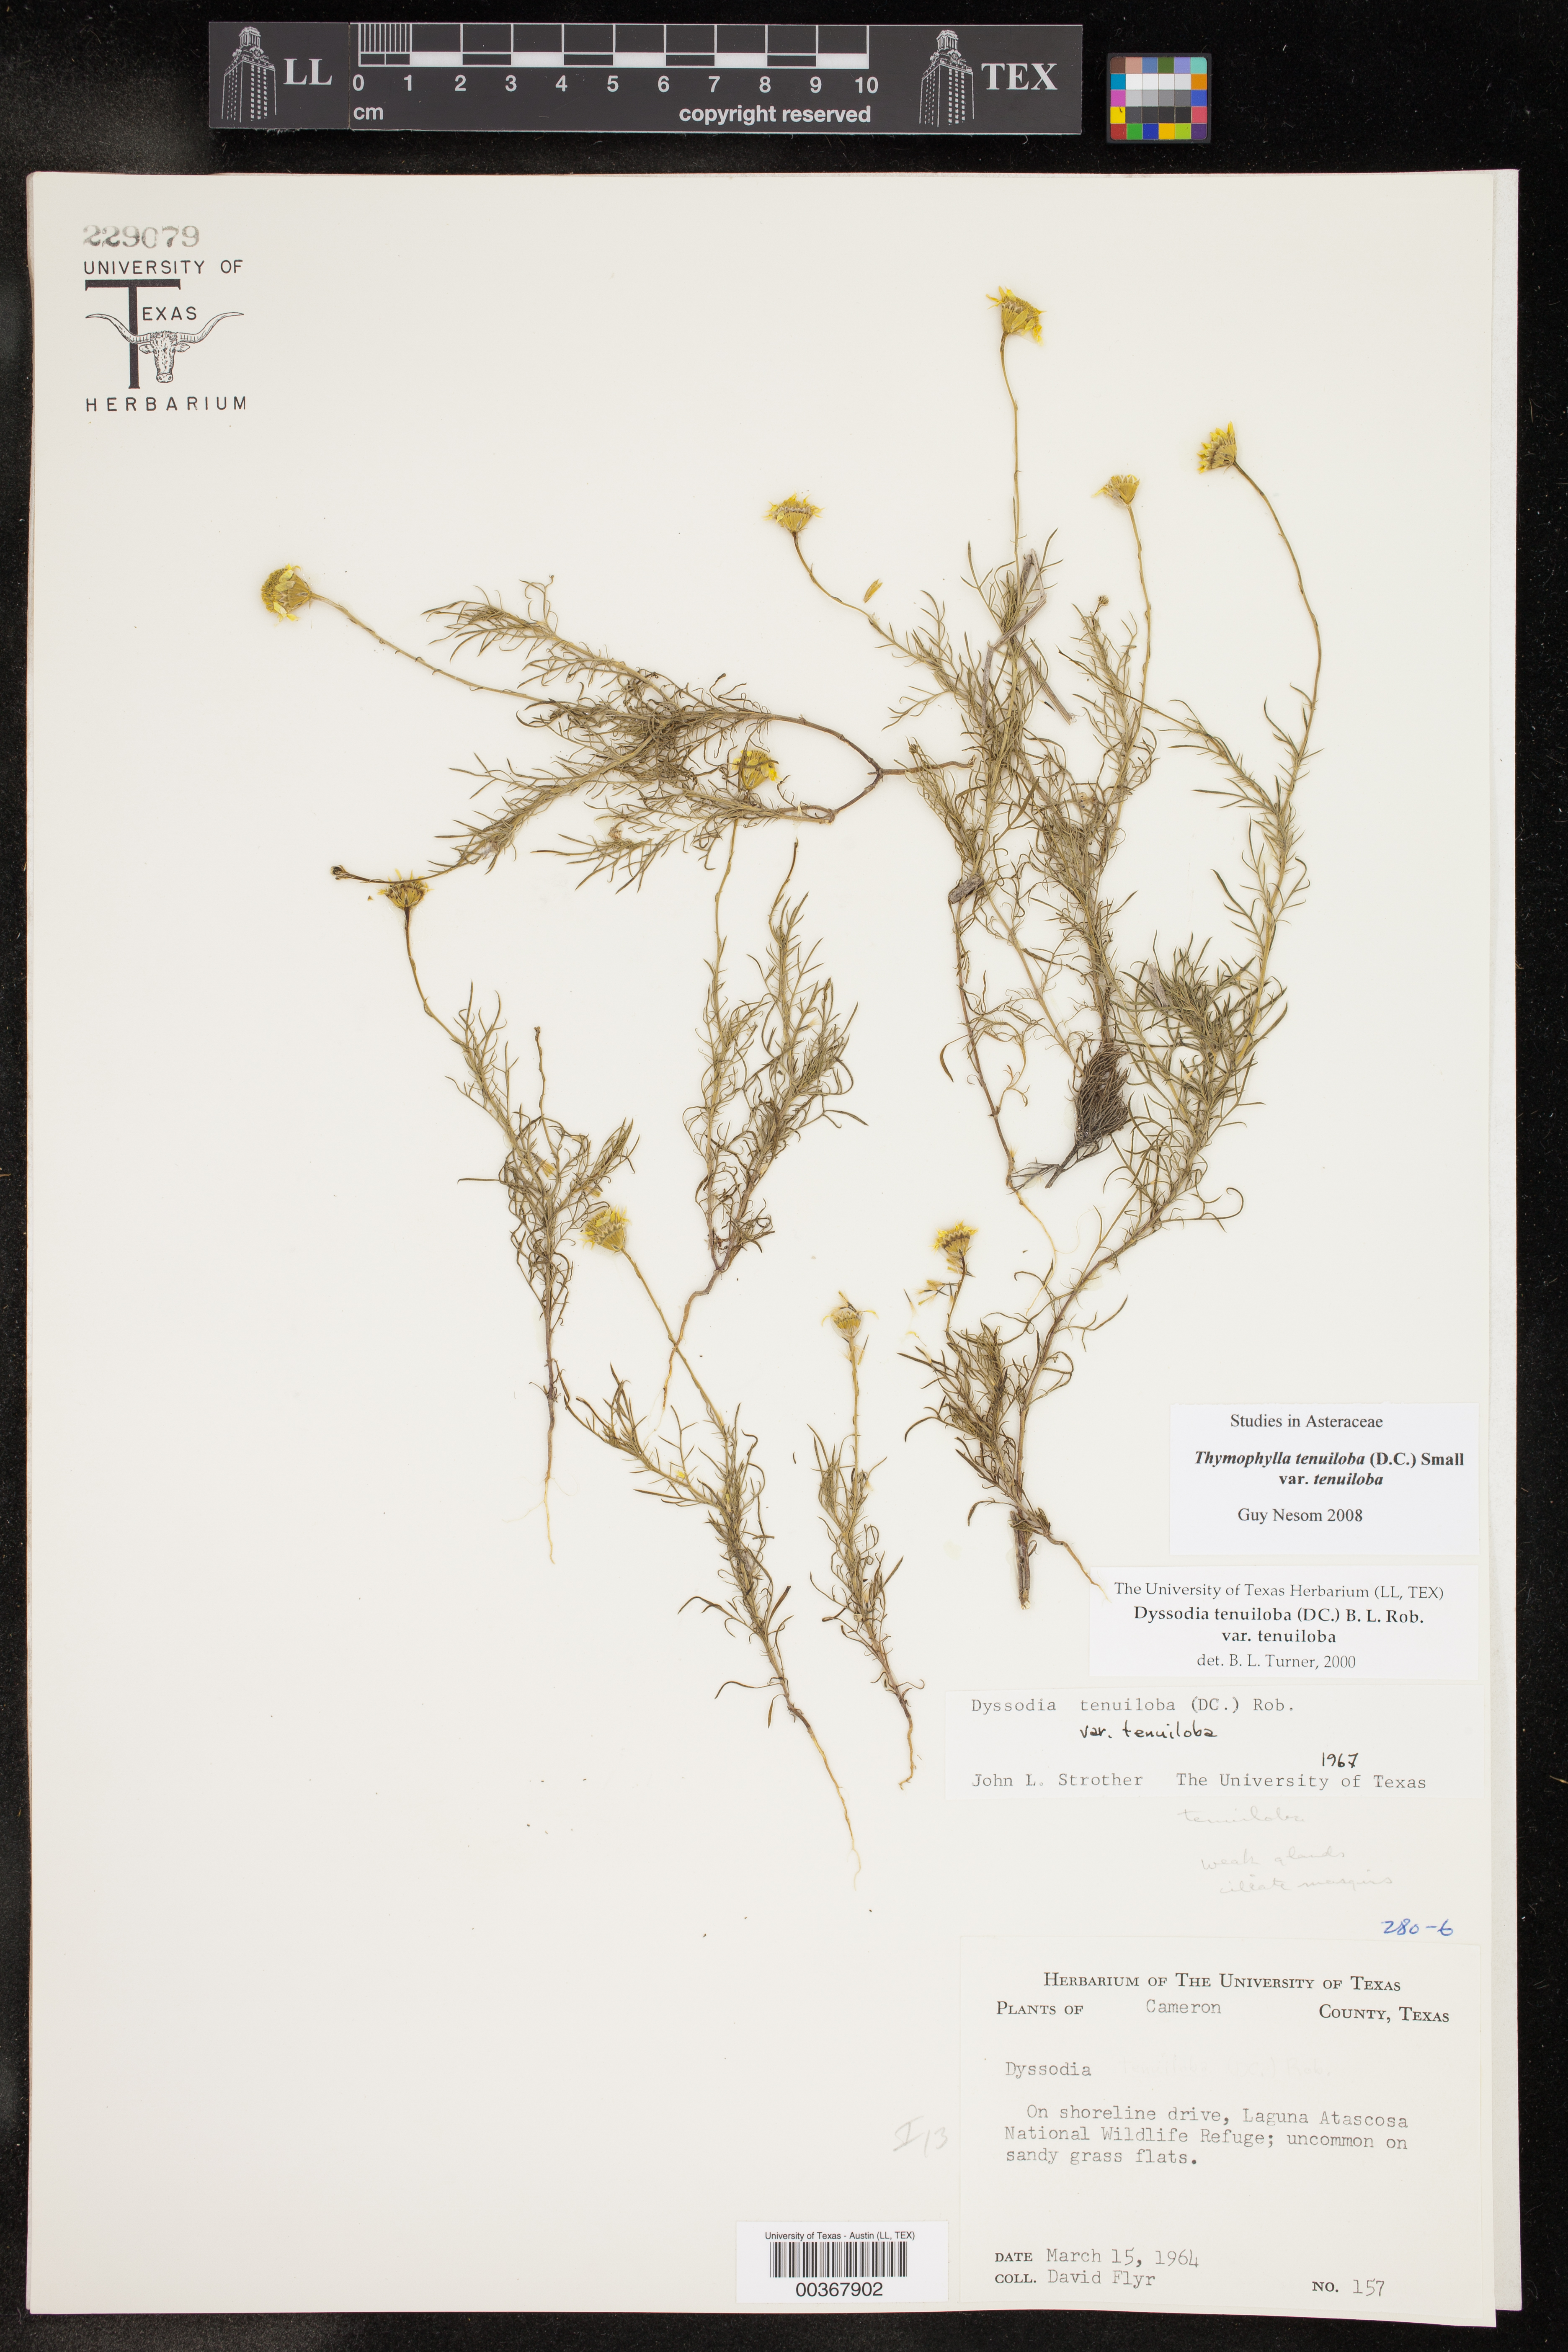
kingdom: Plantae
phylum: Tracheophyta
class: Magnoliopsida
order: Asterales
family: Asteraceae
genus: Thymophylla
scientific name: Thymophylla tenuiloba
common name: Dahlberg's daisy
